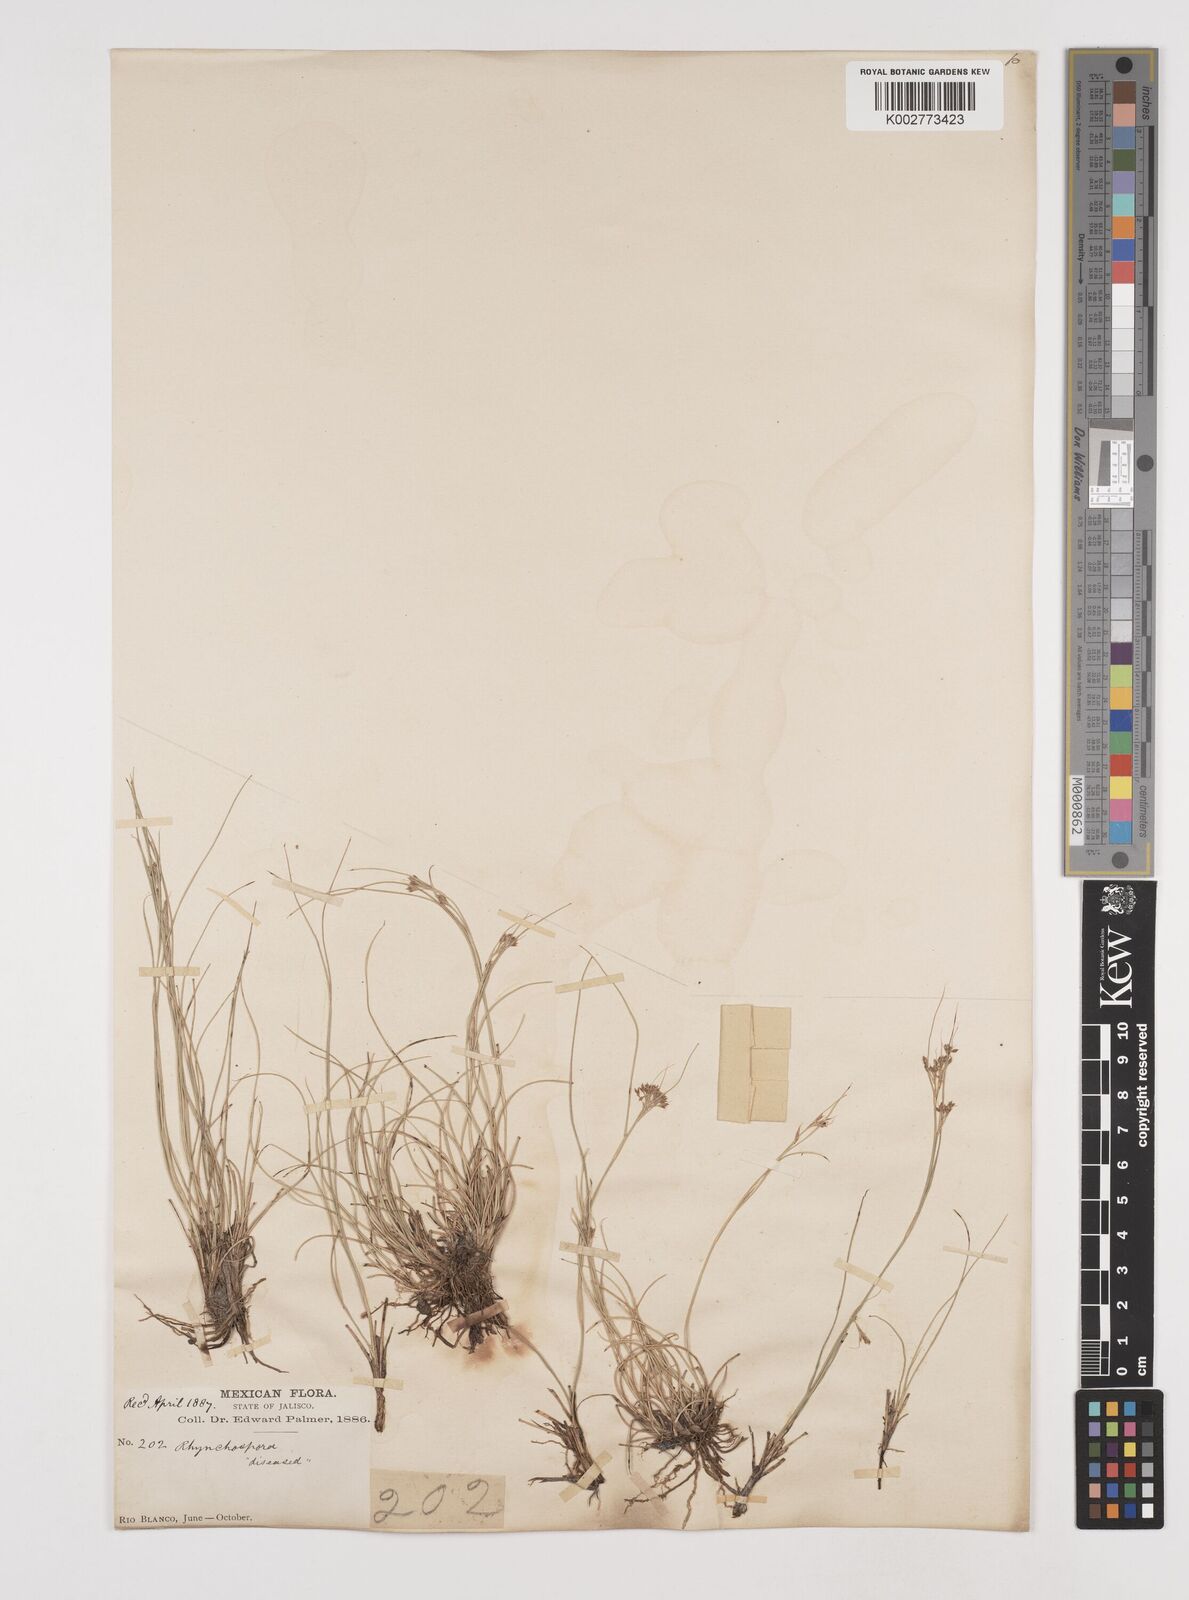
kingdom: Plantae
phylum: Tracheophyta
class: Liliopsida
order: Poales
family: Cyperaceae
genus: Rhynchospora
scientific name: Rhynchospora tenuis
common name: Quill beaksedge
